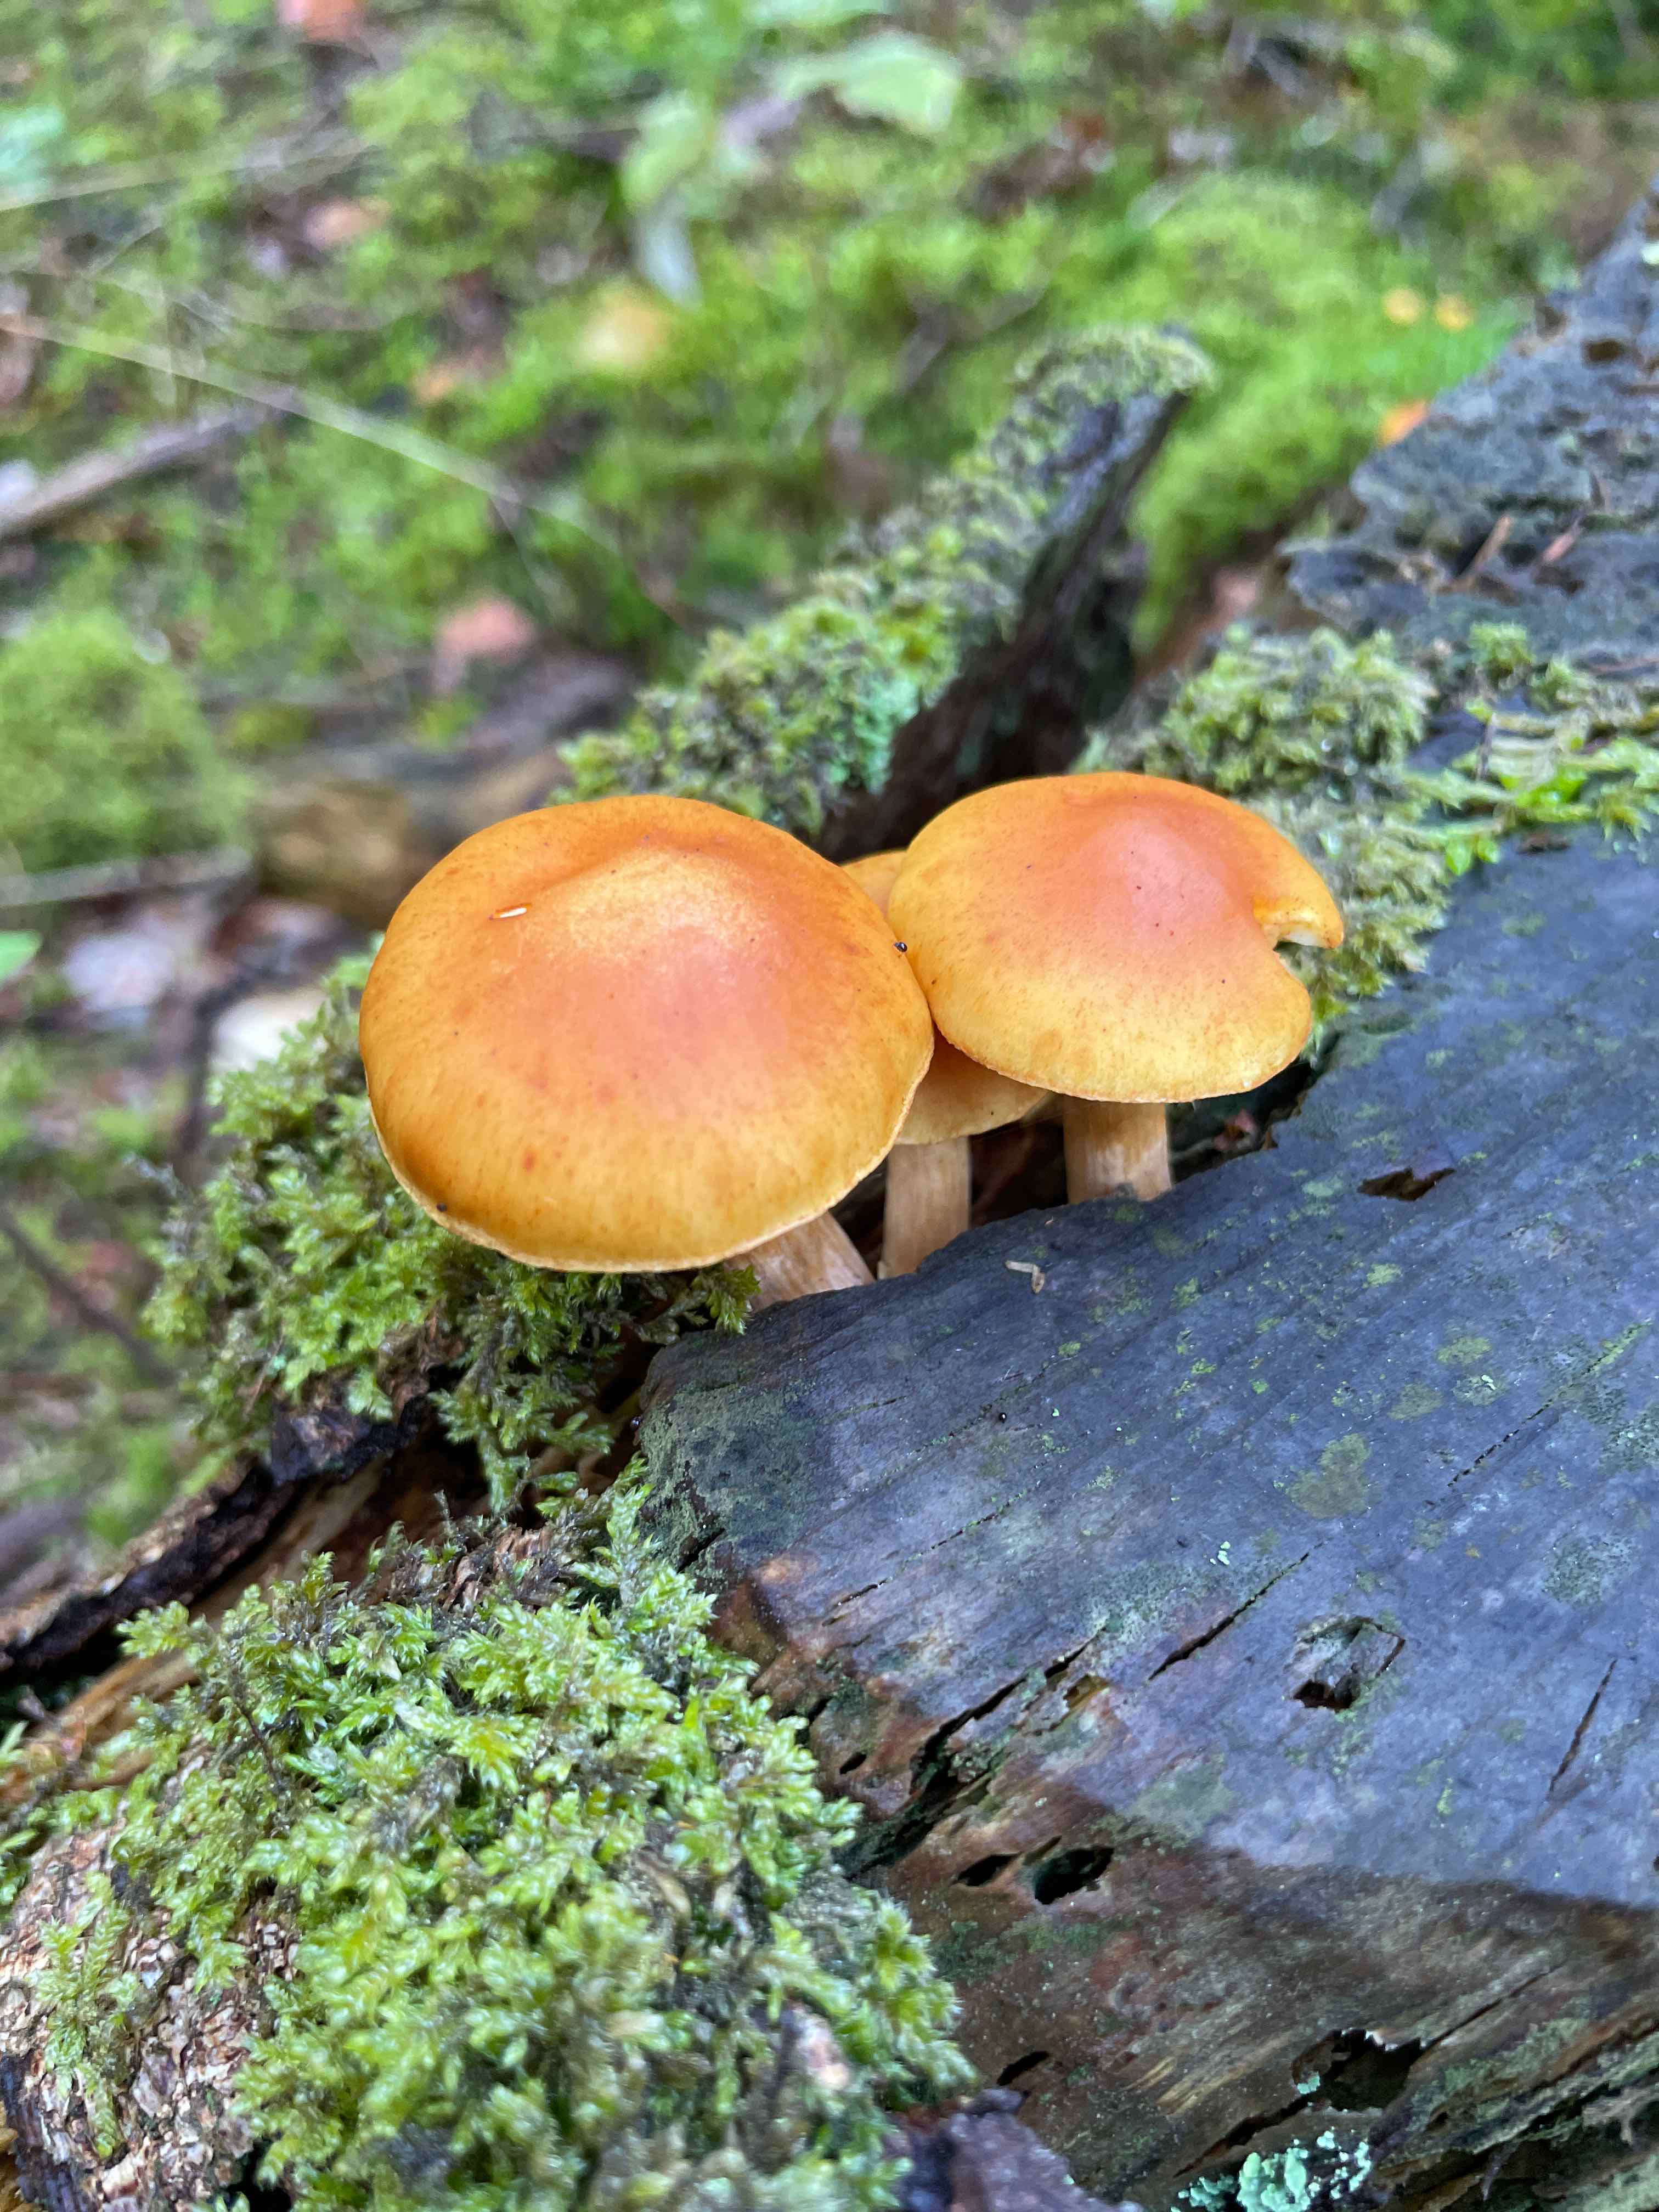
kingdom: Fungi
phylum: Basidiomycota
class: Agaricomycetes
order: Agaricales
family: Hymenogastraceae
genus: Gymnopilus
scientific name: Gymnopilus penetrans
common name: plettet flammehat
